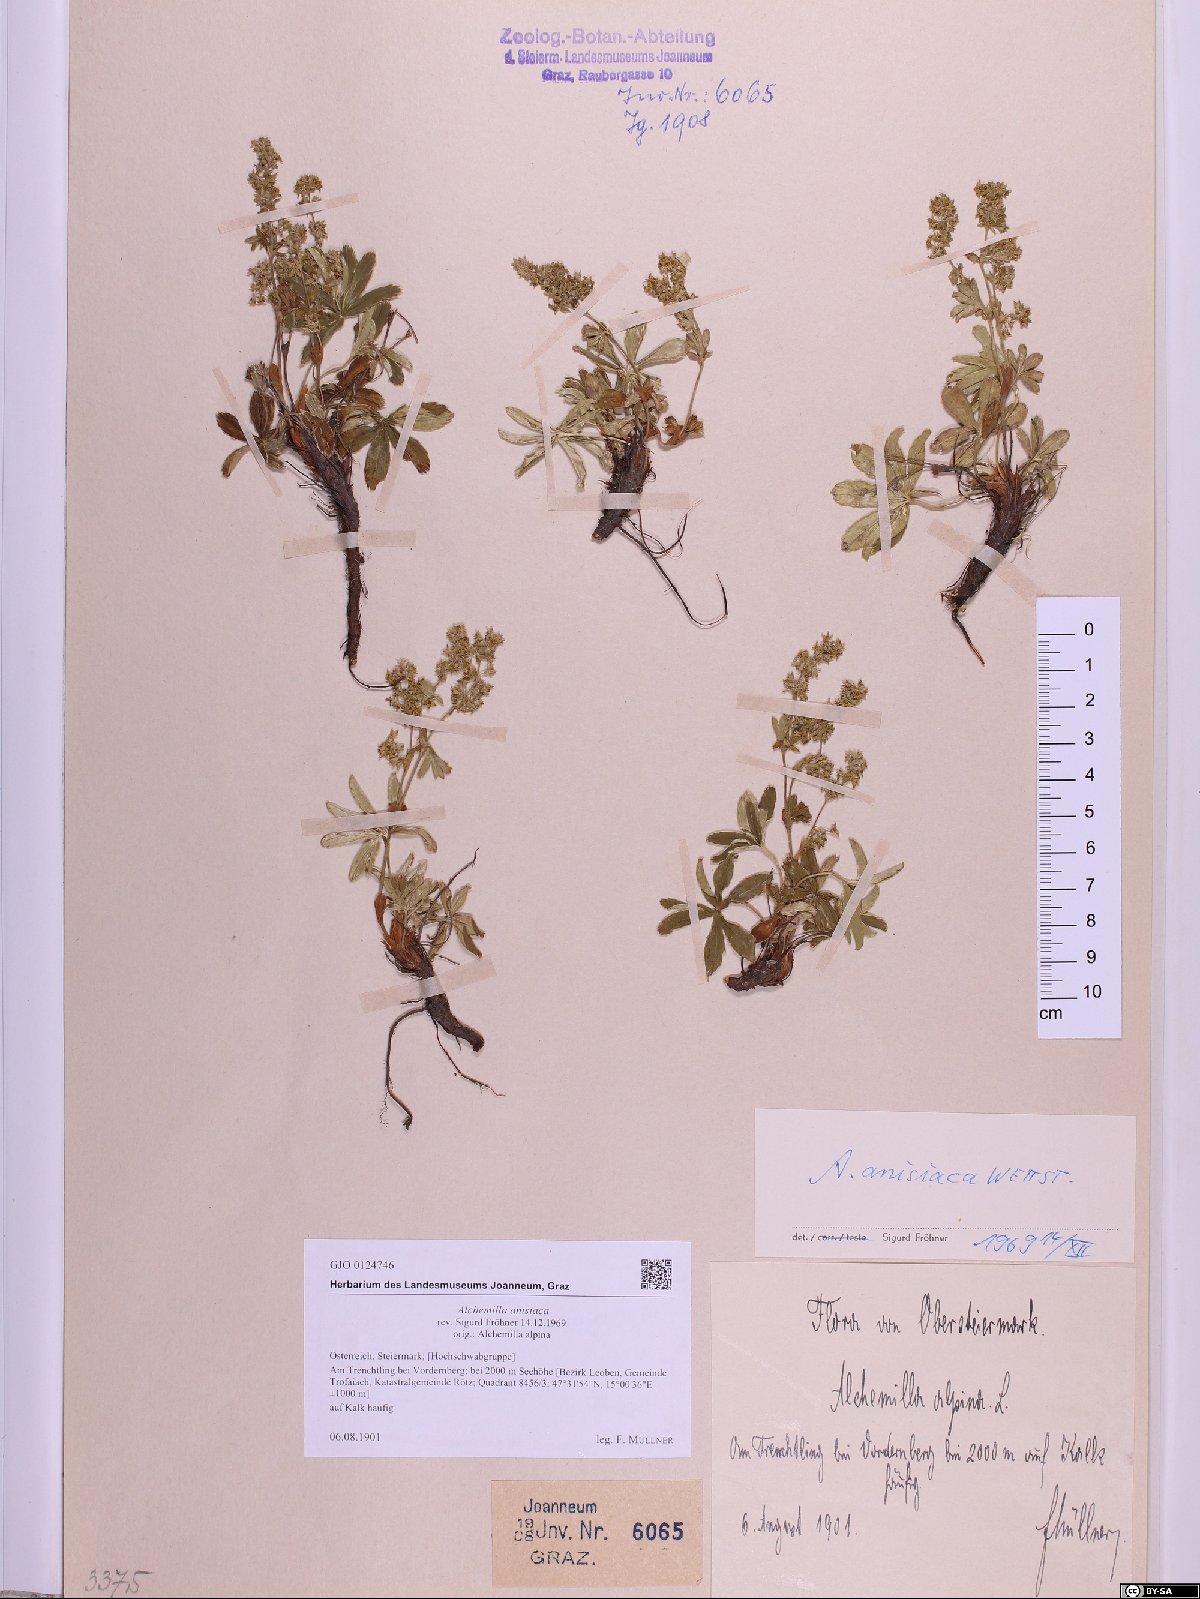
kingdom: Plantae
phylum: Tracheophyta
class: Magnoliopsida
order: Rosales
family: Rosaceae
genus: Alchemilla
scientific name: Alchemilla anisiaca
